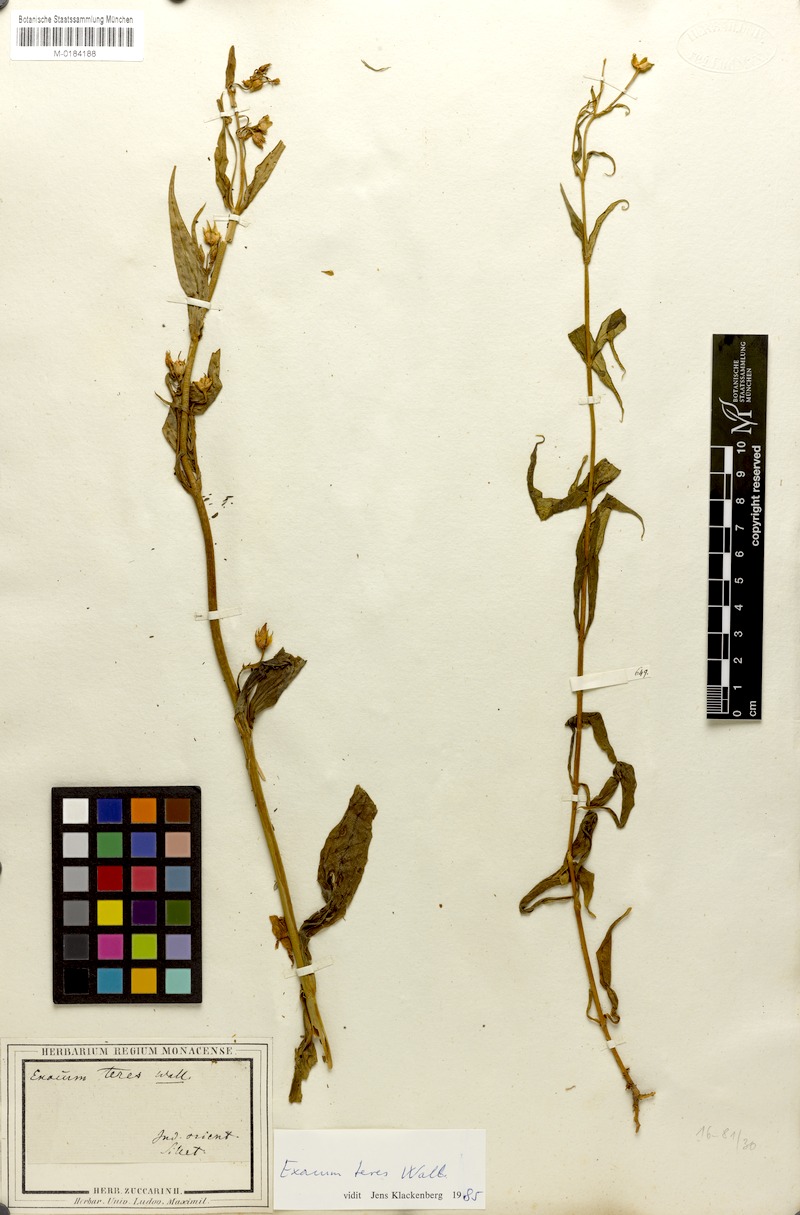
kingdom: Plantae
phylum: Tracheophyta
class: Magnoliopsida
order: Gentianales
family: Gentianaceae
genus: Exacum
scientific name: Exacum teres
